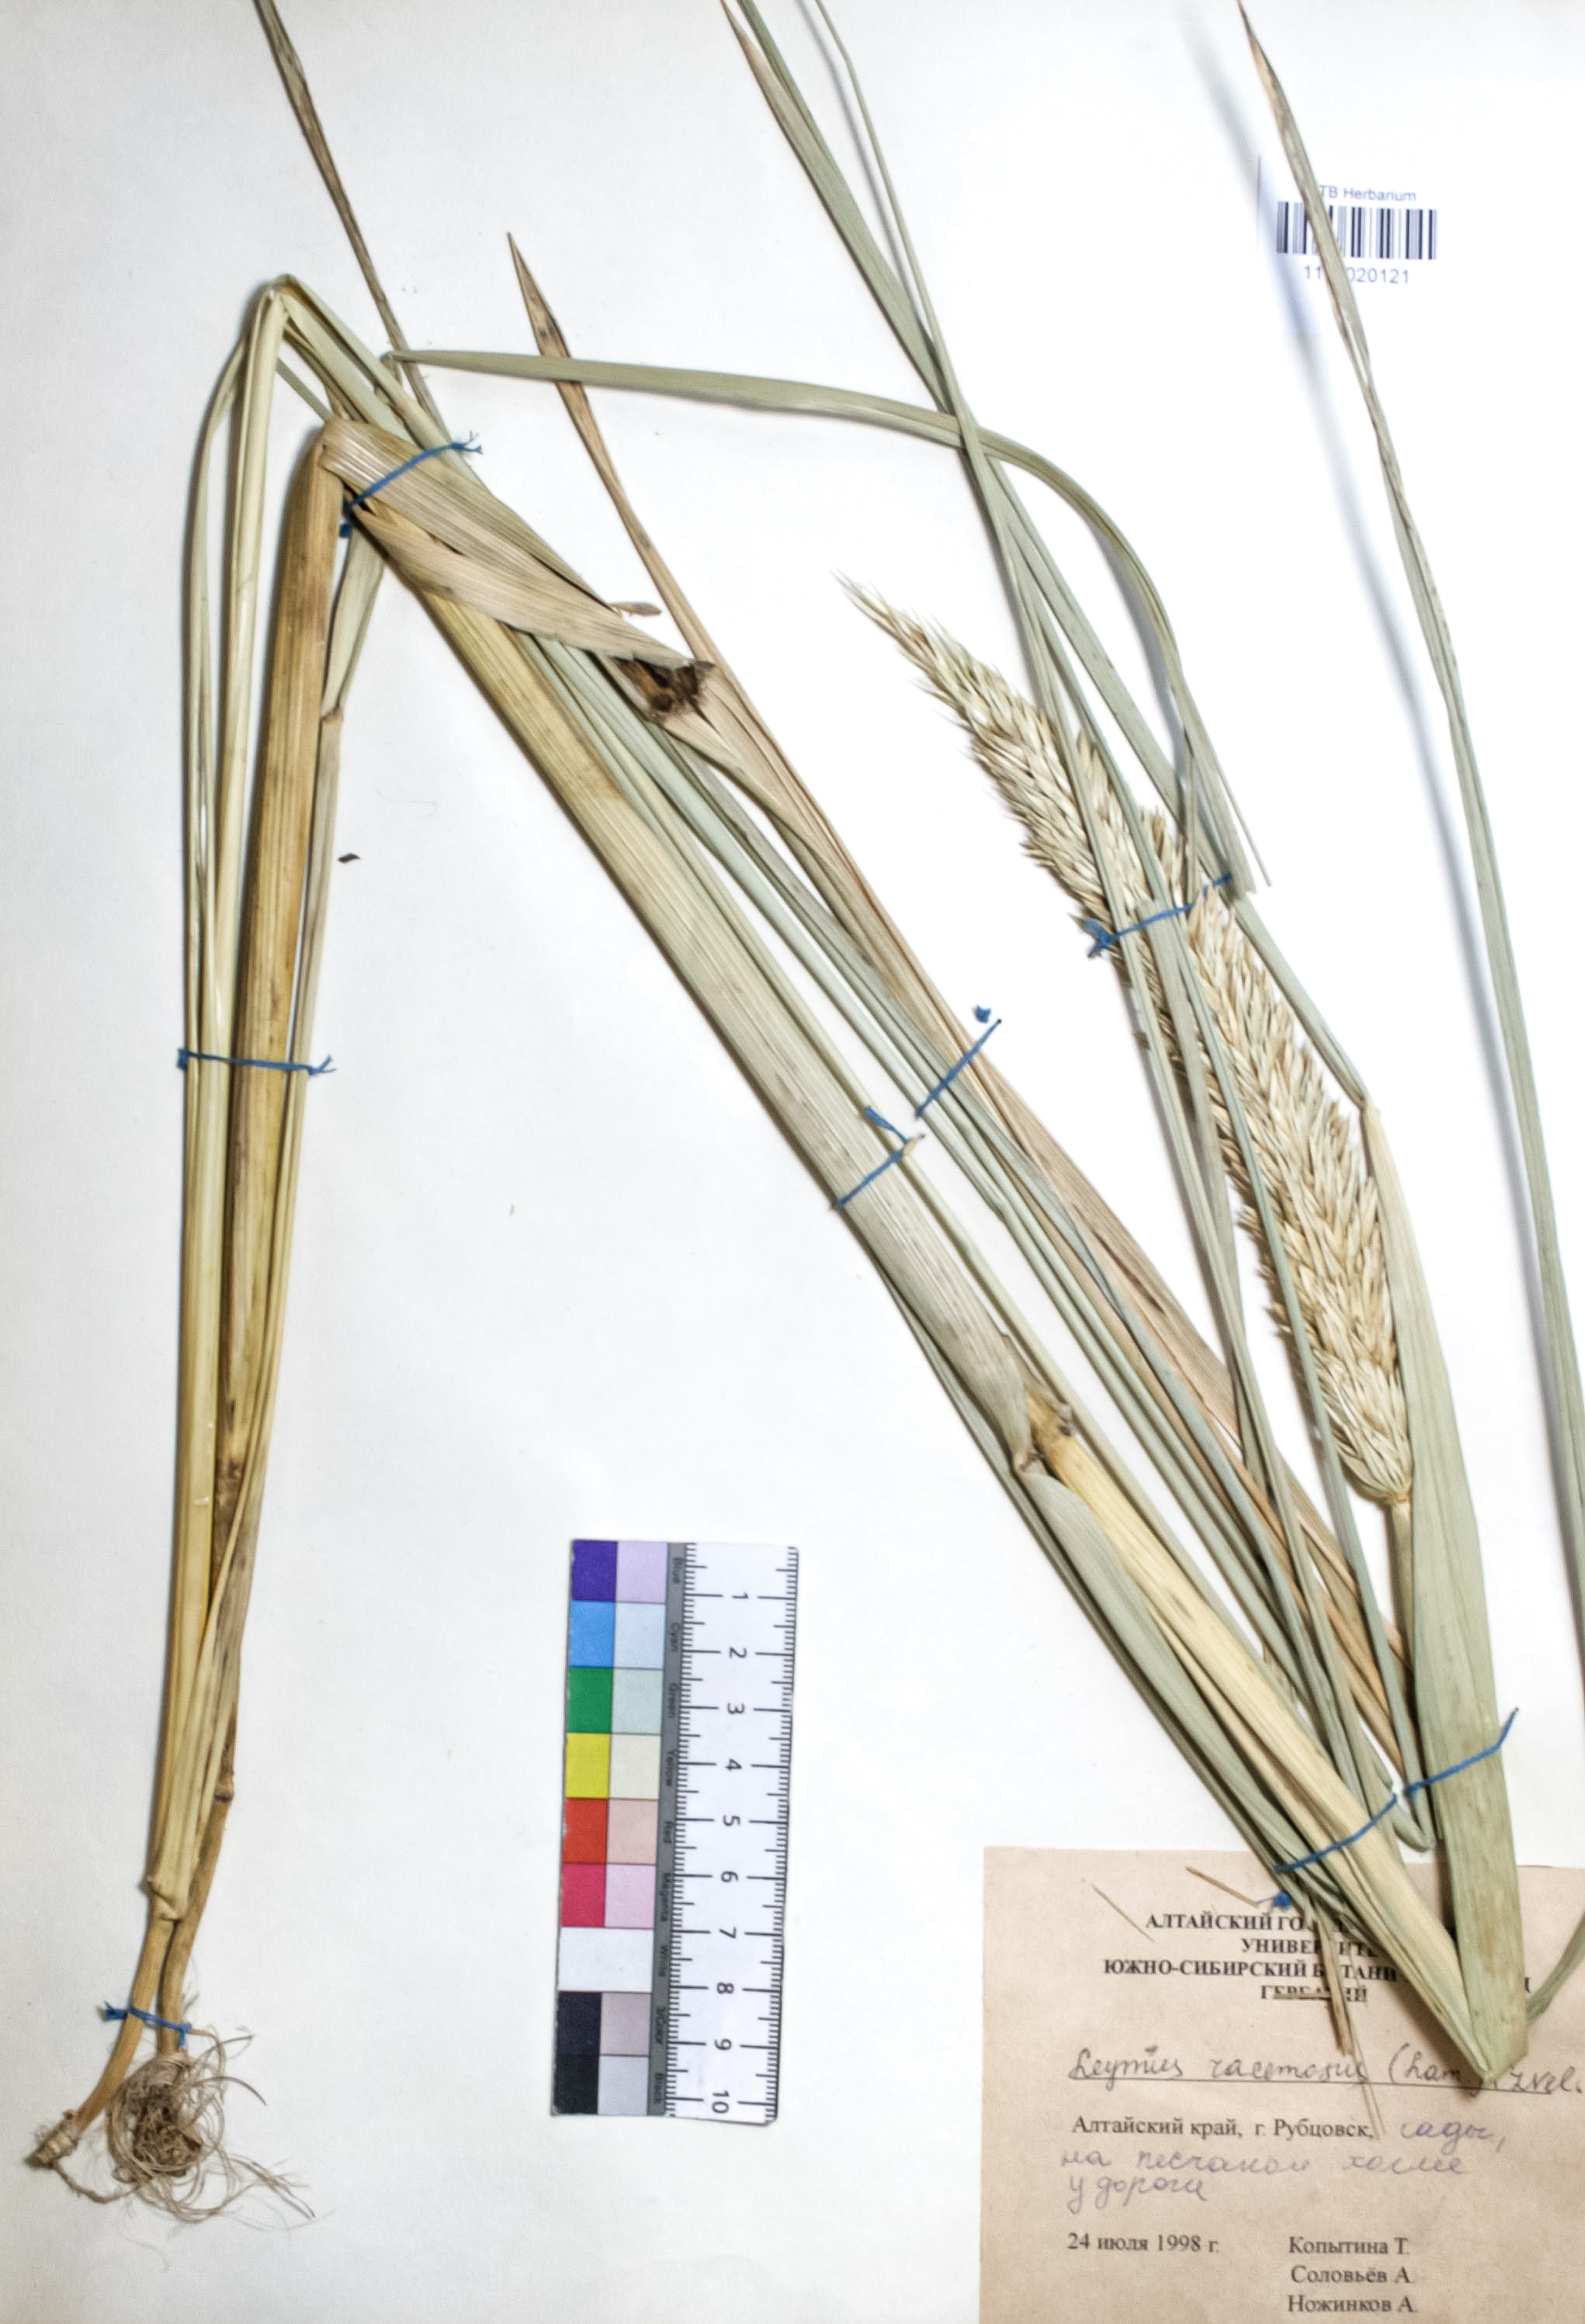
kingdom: Plantae
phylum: Tracheophyta
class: Liliopsida
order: Poales
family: Poaceae
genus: Leymus
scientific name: Leymus racemosus
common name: Mammoth wildrye
